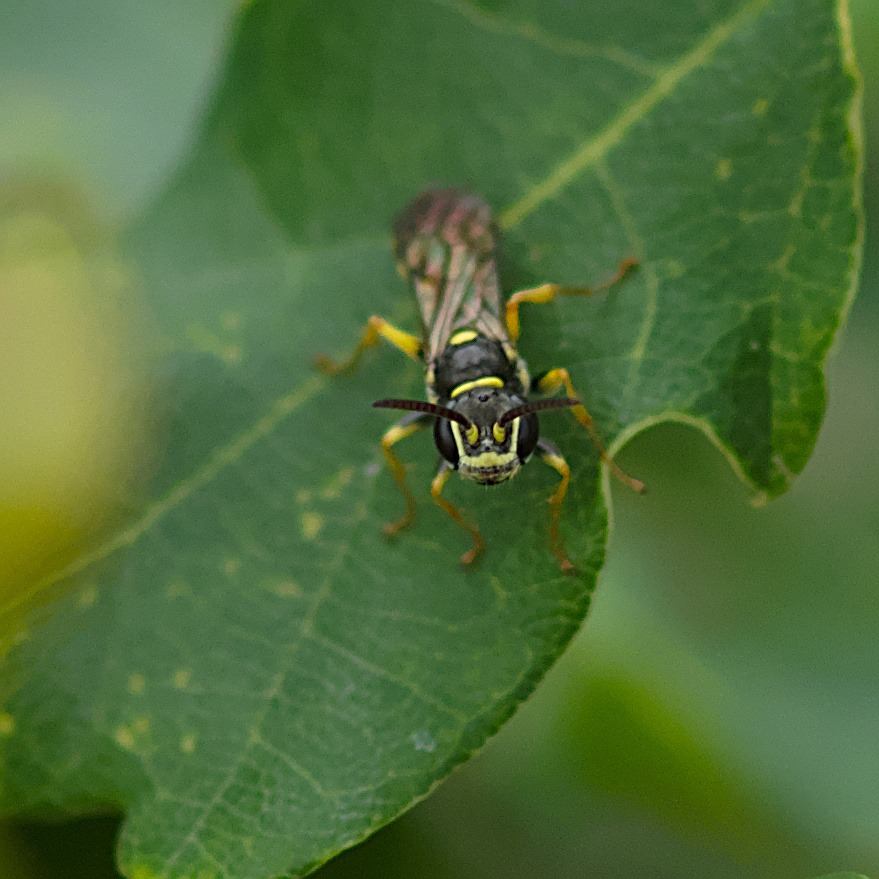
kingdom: Animalia
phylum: Arthropoda
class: Insecta
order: Hymenoptera
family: Crabronidae
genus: Mellinus
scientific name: Mellinus arvensis
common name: Efterårsgravehveps
